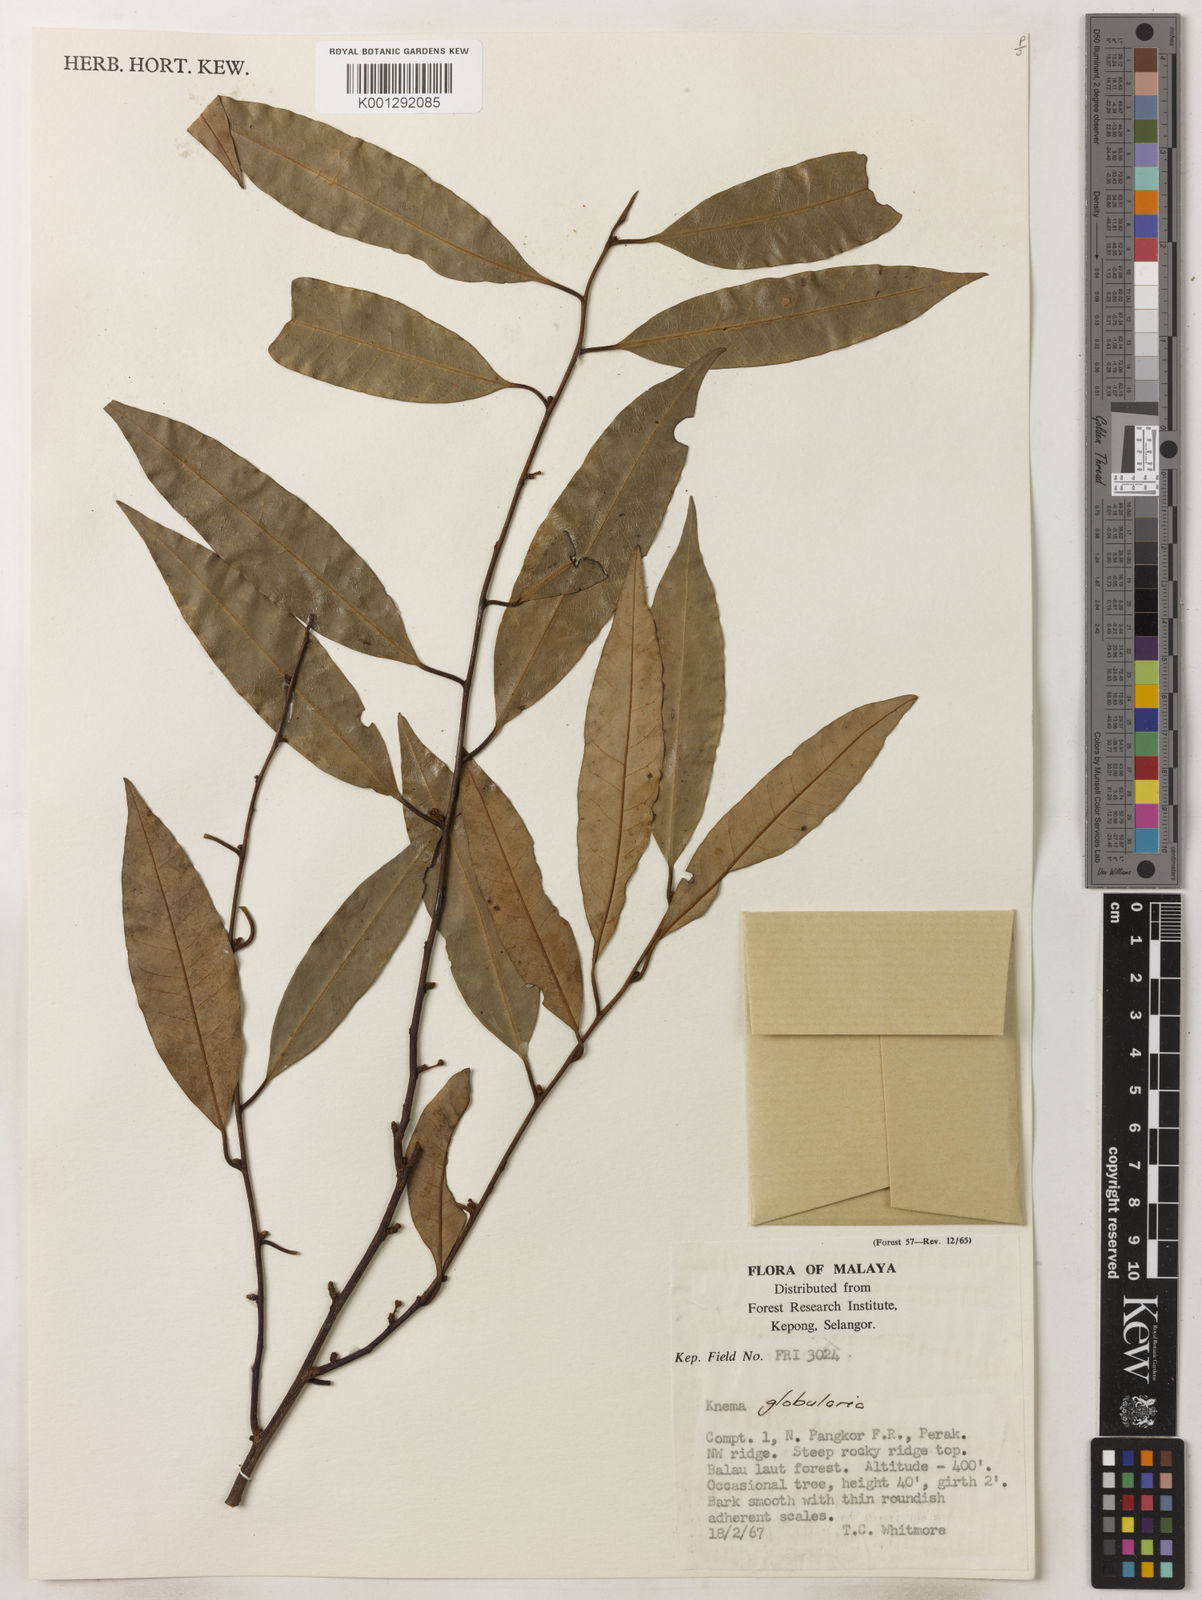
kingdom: Plantae
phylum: Tracheophyta
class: Magnoliopsida
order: Magnoliales
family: Myristicaceae
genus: Knema
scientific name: Knema globularia
